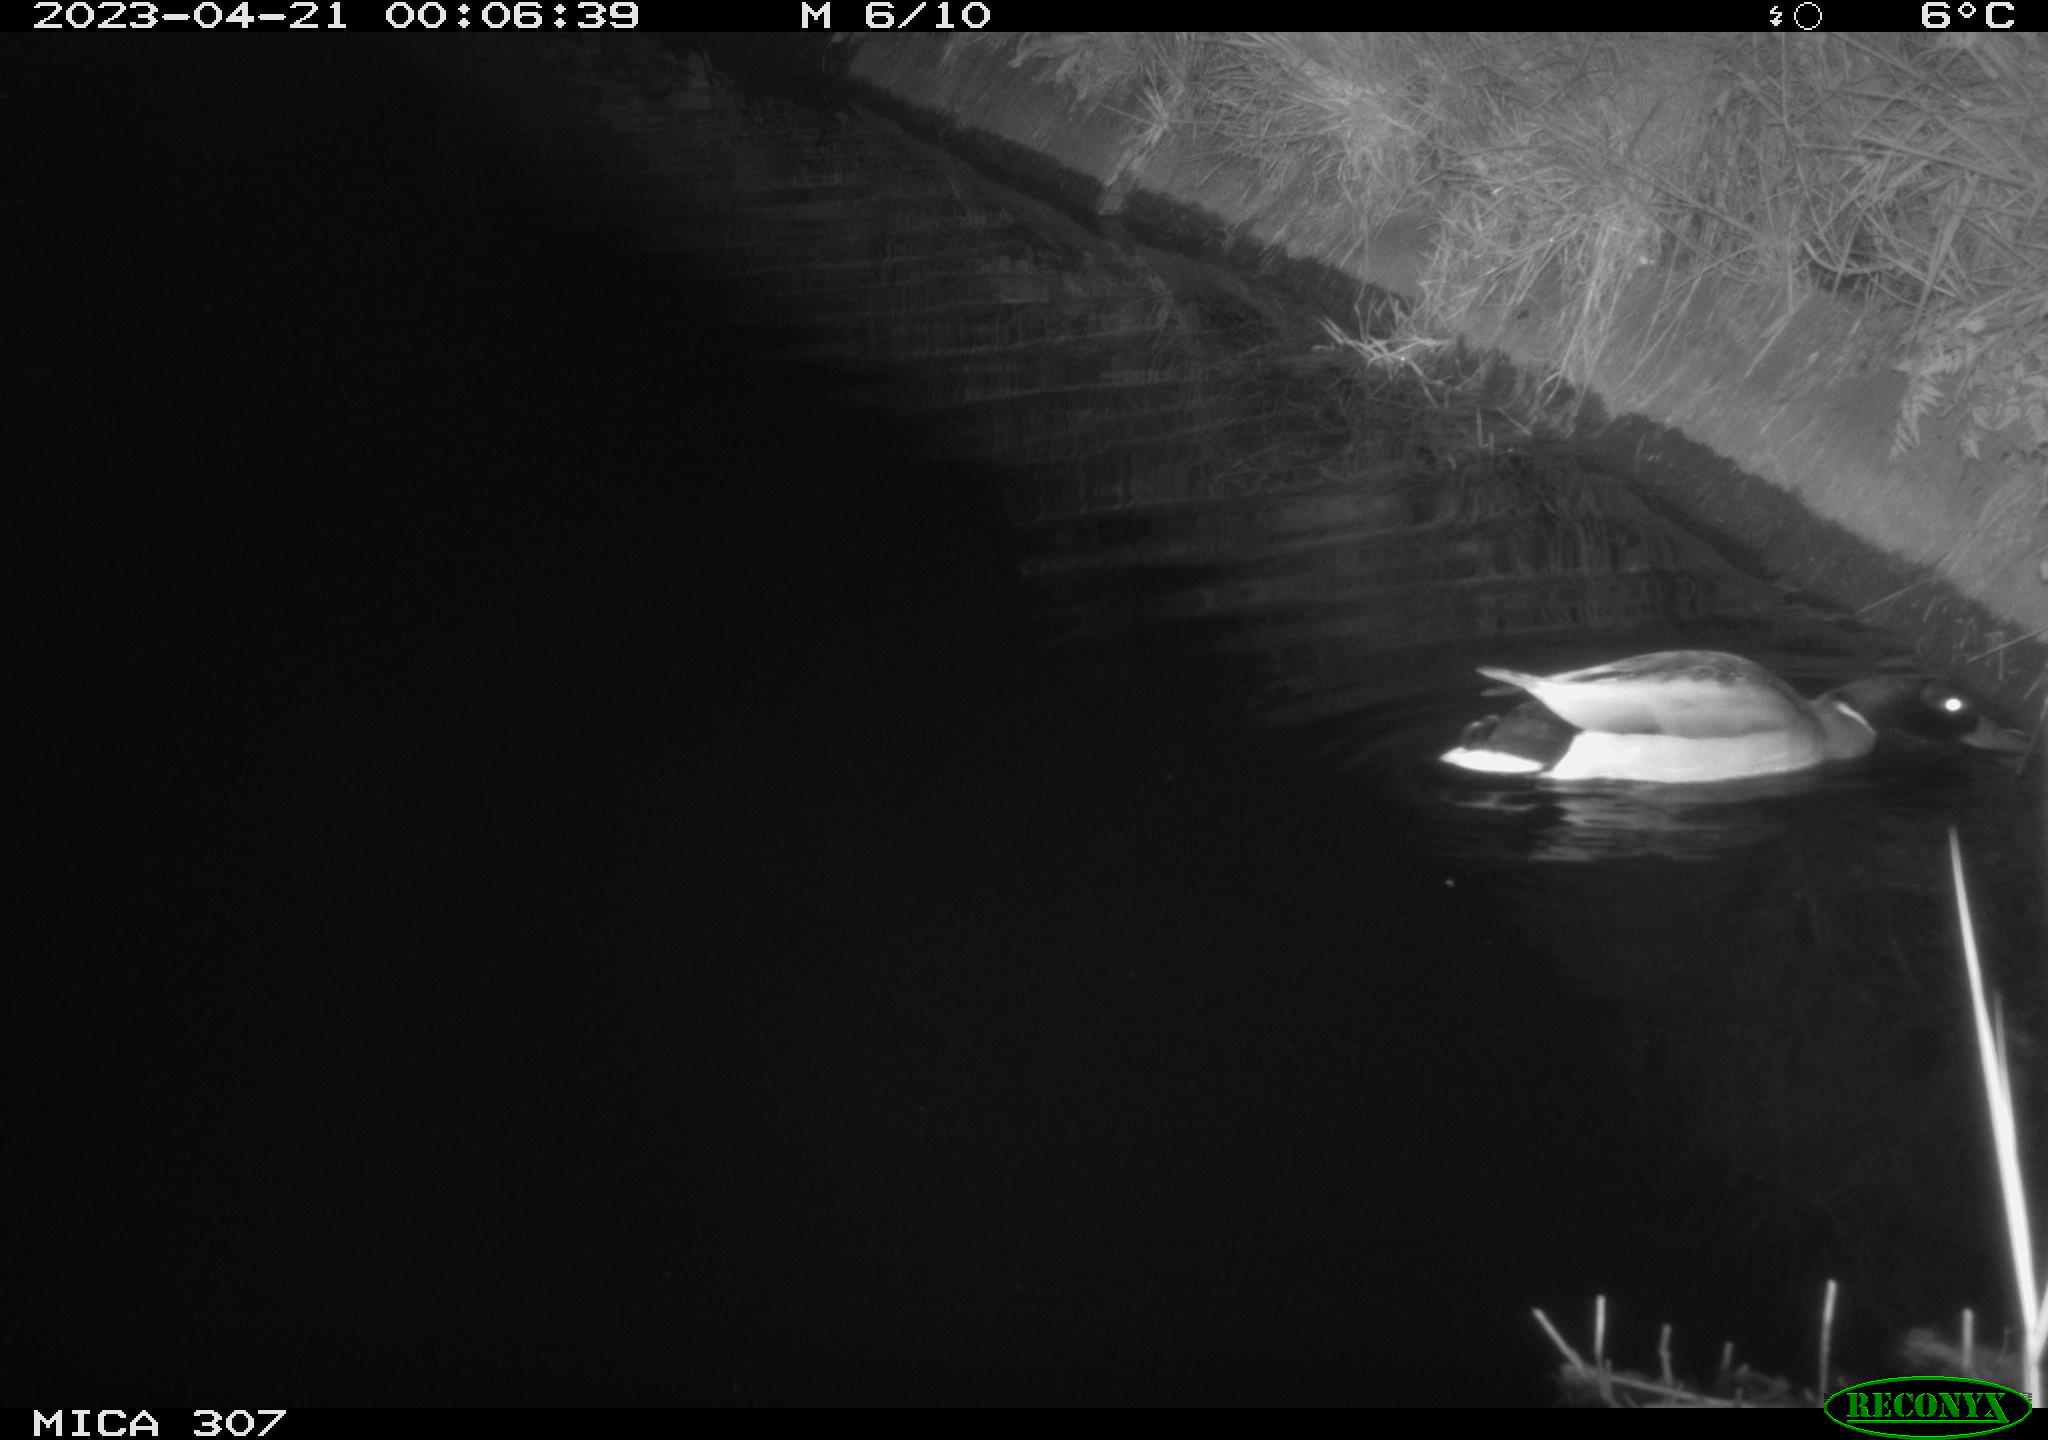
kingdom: Animalia
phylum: Chordata
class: Aves
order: Anseriformes
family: Anatidae
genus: Anas
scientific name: Anas
